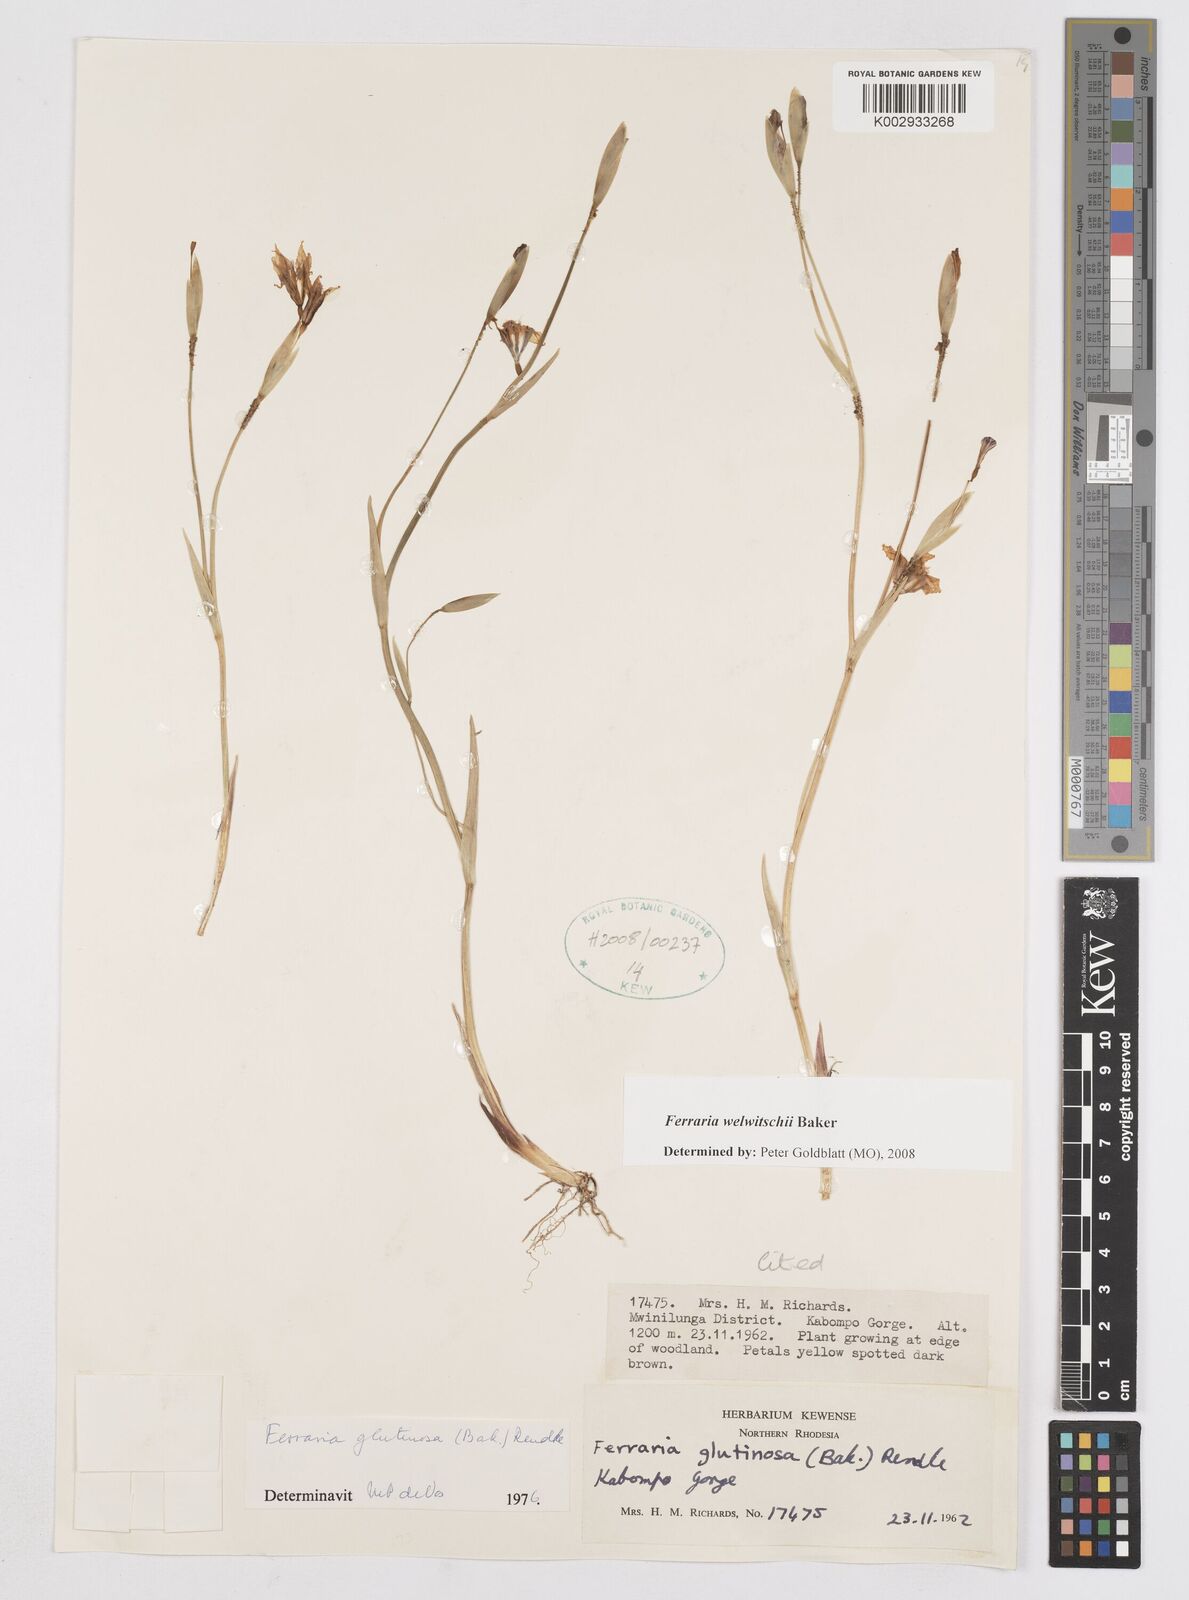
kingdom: Plantae
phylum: Tracheophyta
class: Liliopsida
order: Asparagales
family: Iridaceae
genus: Ferraria
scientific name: Ferraria welwitschii
